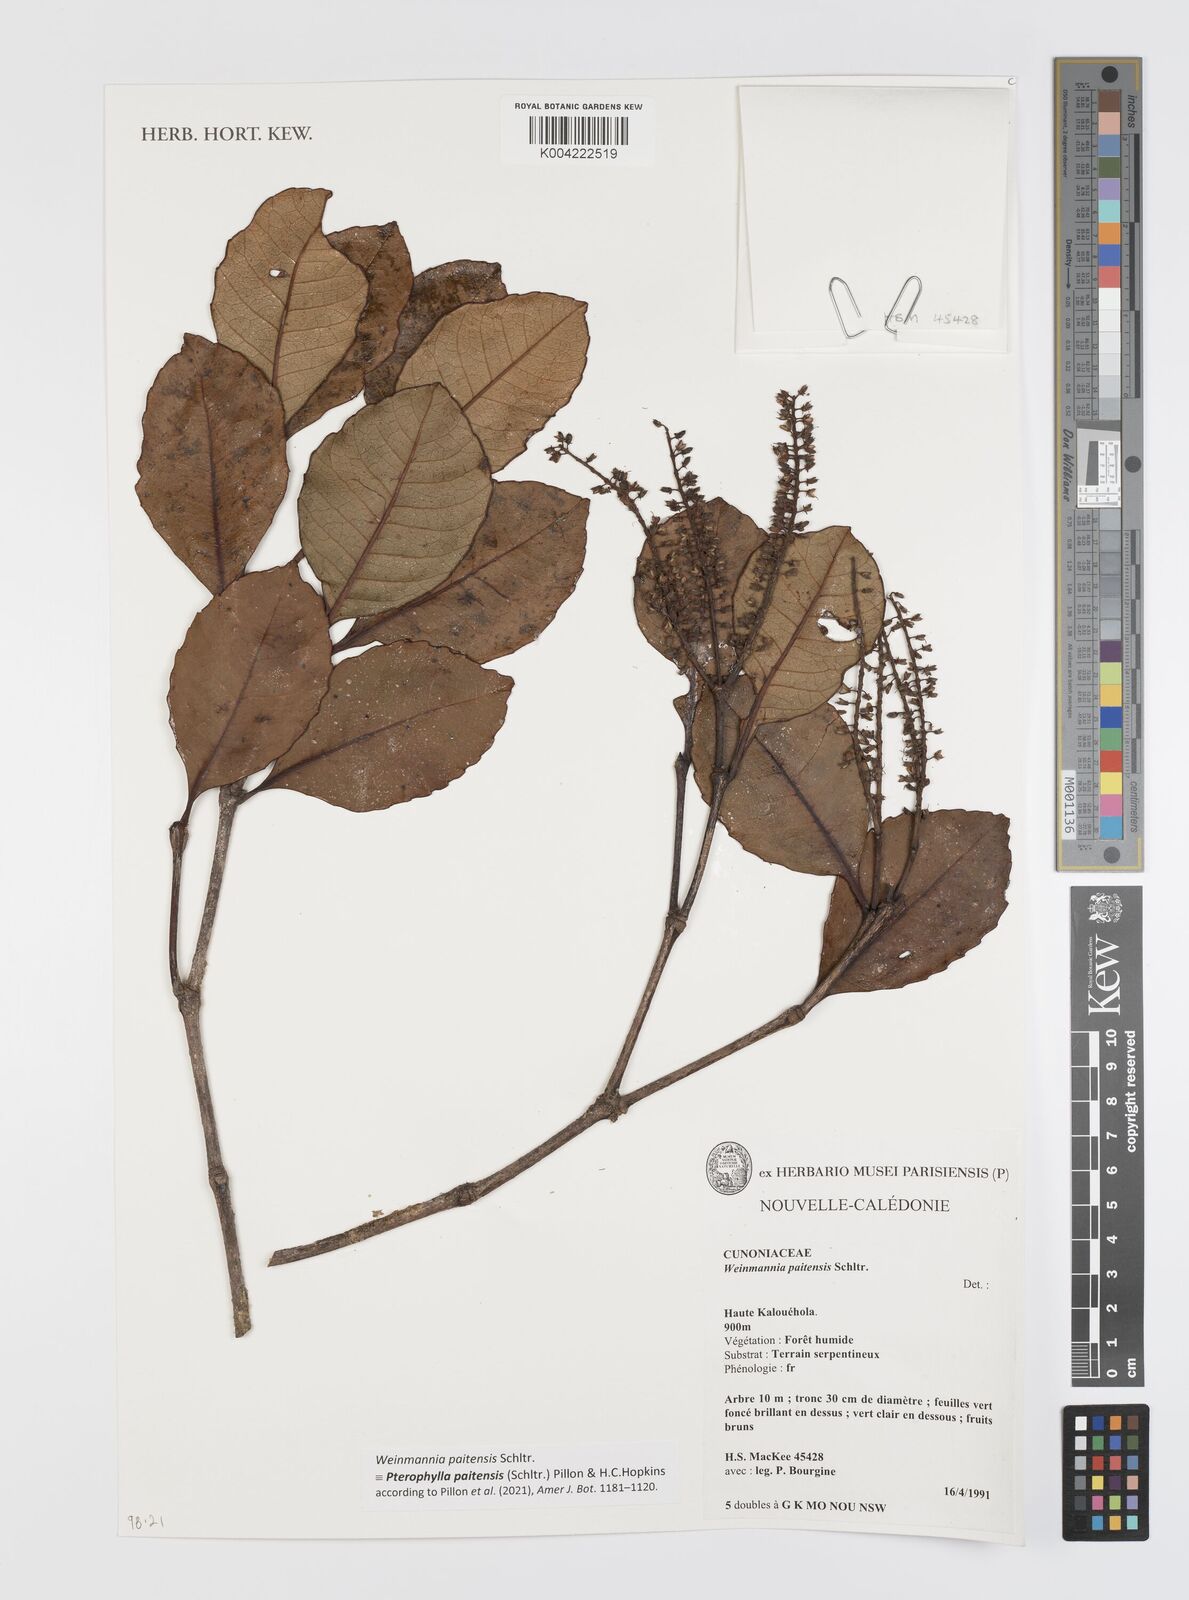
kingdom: Plantae
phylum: Tracheophyta
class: Magnoliopsida
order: Oxalidales
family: Cunoniaceae
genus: Pterophylla
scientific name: Pterophylla paitensis
